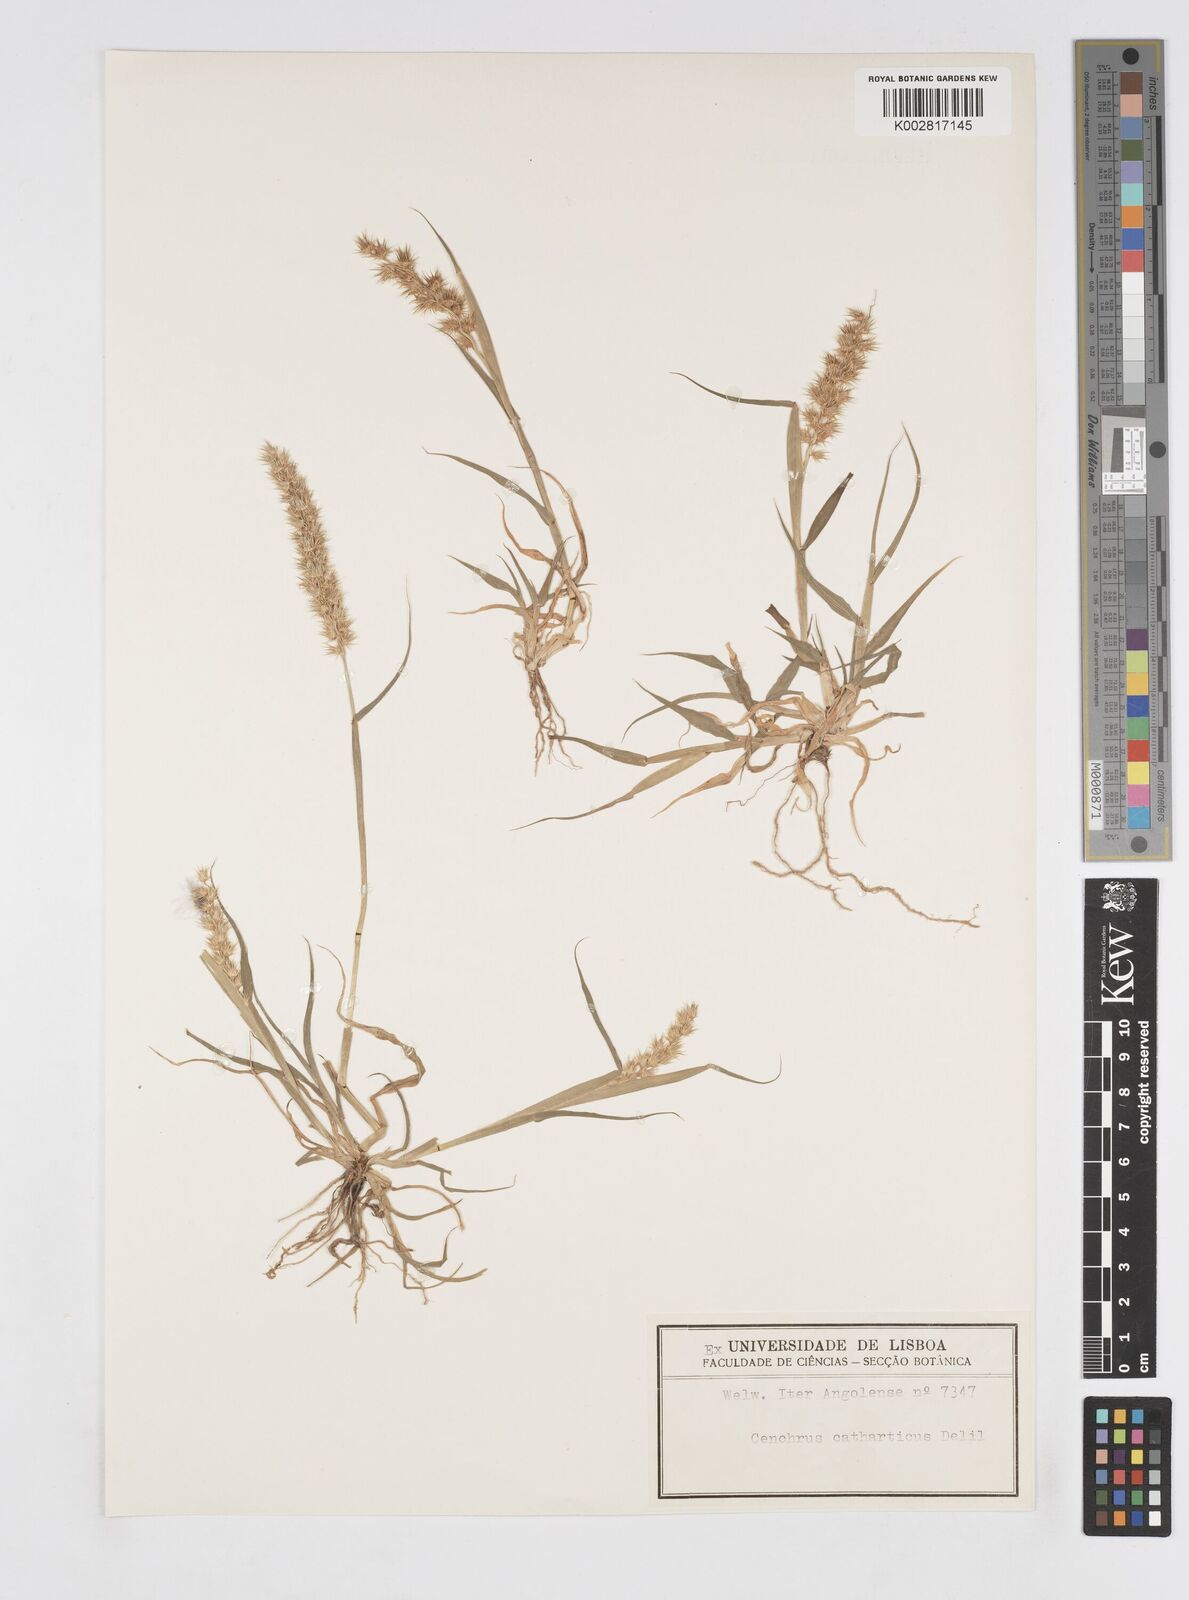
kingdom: Plantae
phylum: Tracheophyta
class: Liliopsida
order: Poales
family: Poaceae
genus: Cenchrus
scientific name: Cenchrus biflorus
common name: Indian sandbur
